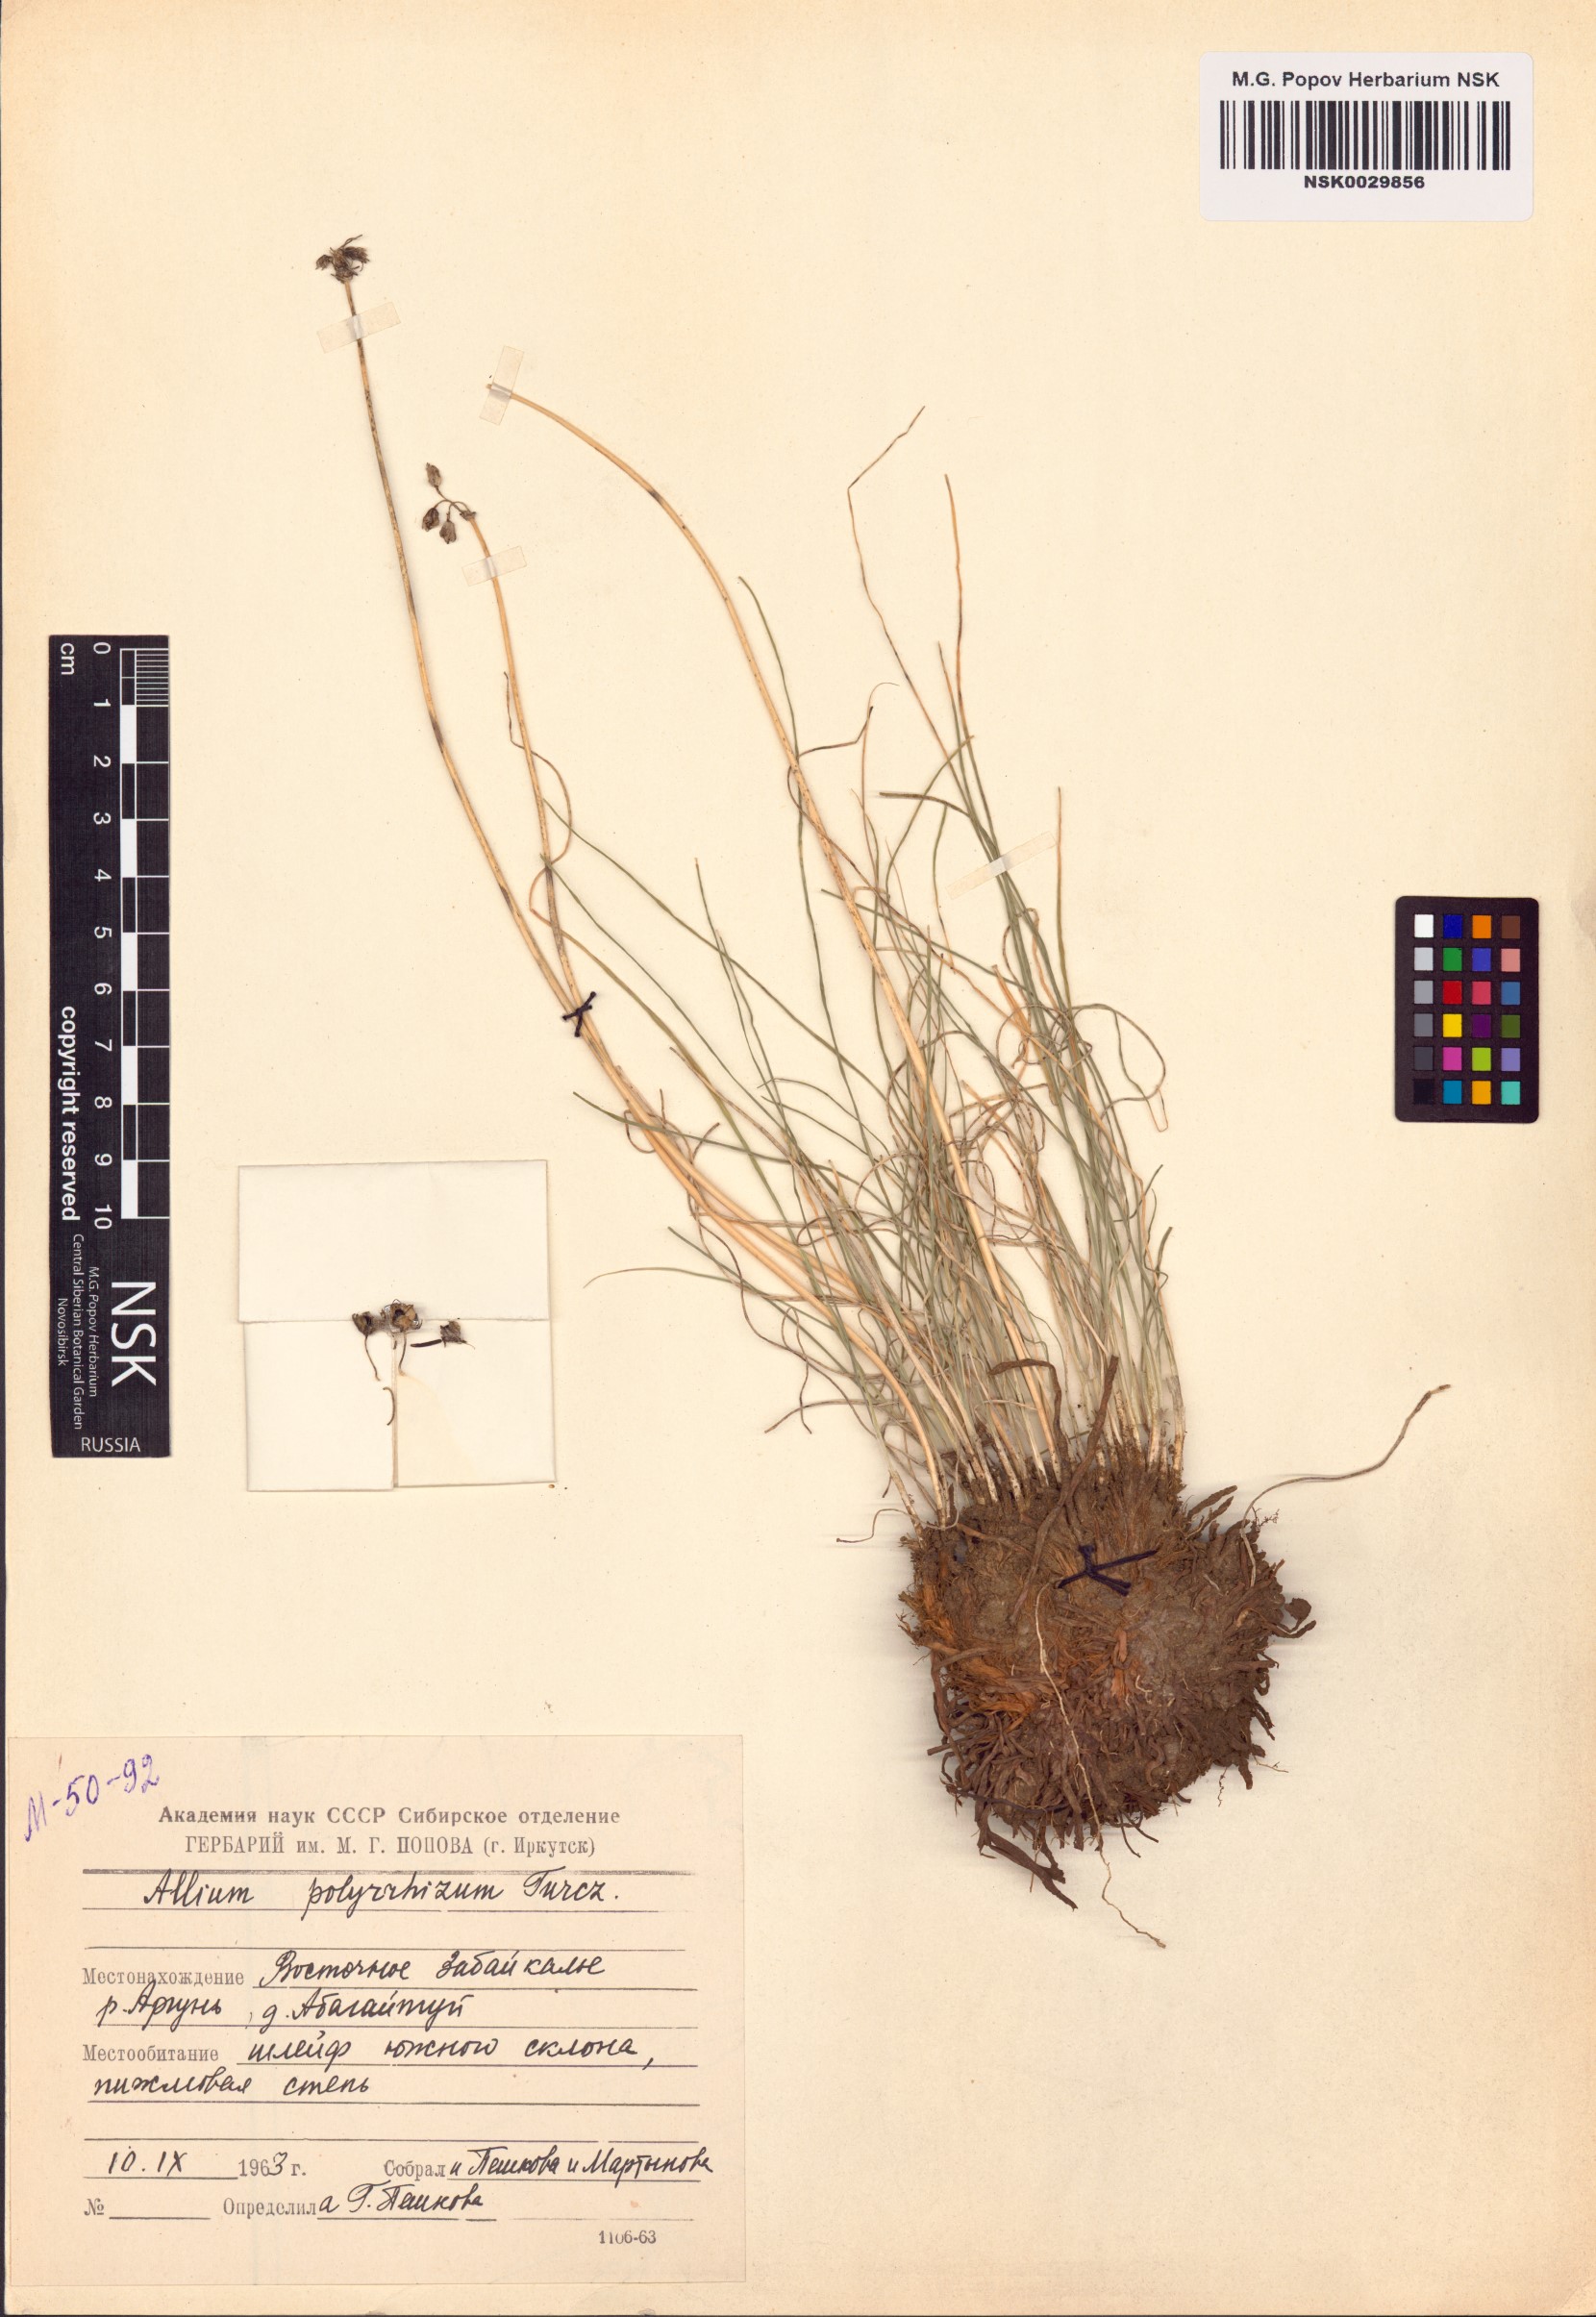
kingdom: Plantae
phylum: Tracheophyta
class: Liliopsida
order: Asparagales
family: Amaryllidaceae
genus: Allium
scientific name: Allium polyrhizum
